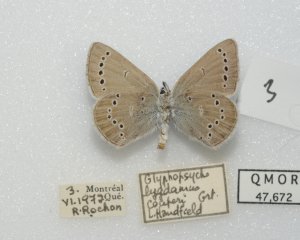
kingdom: Animalia
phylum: Arthropoda
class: Insecta
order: Lepidoptera
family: Lycaenidae
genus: Glaucopsyche
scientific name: Glaucopsyche lygdamus
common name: Silvery Blue
